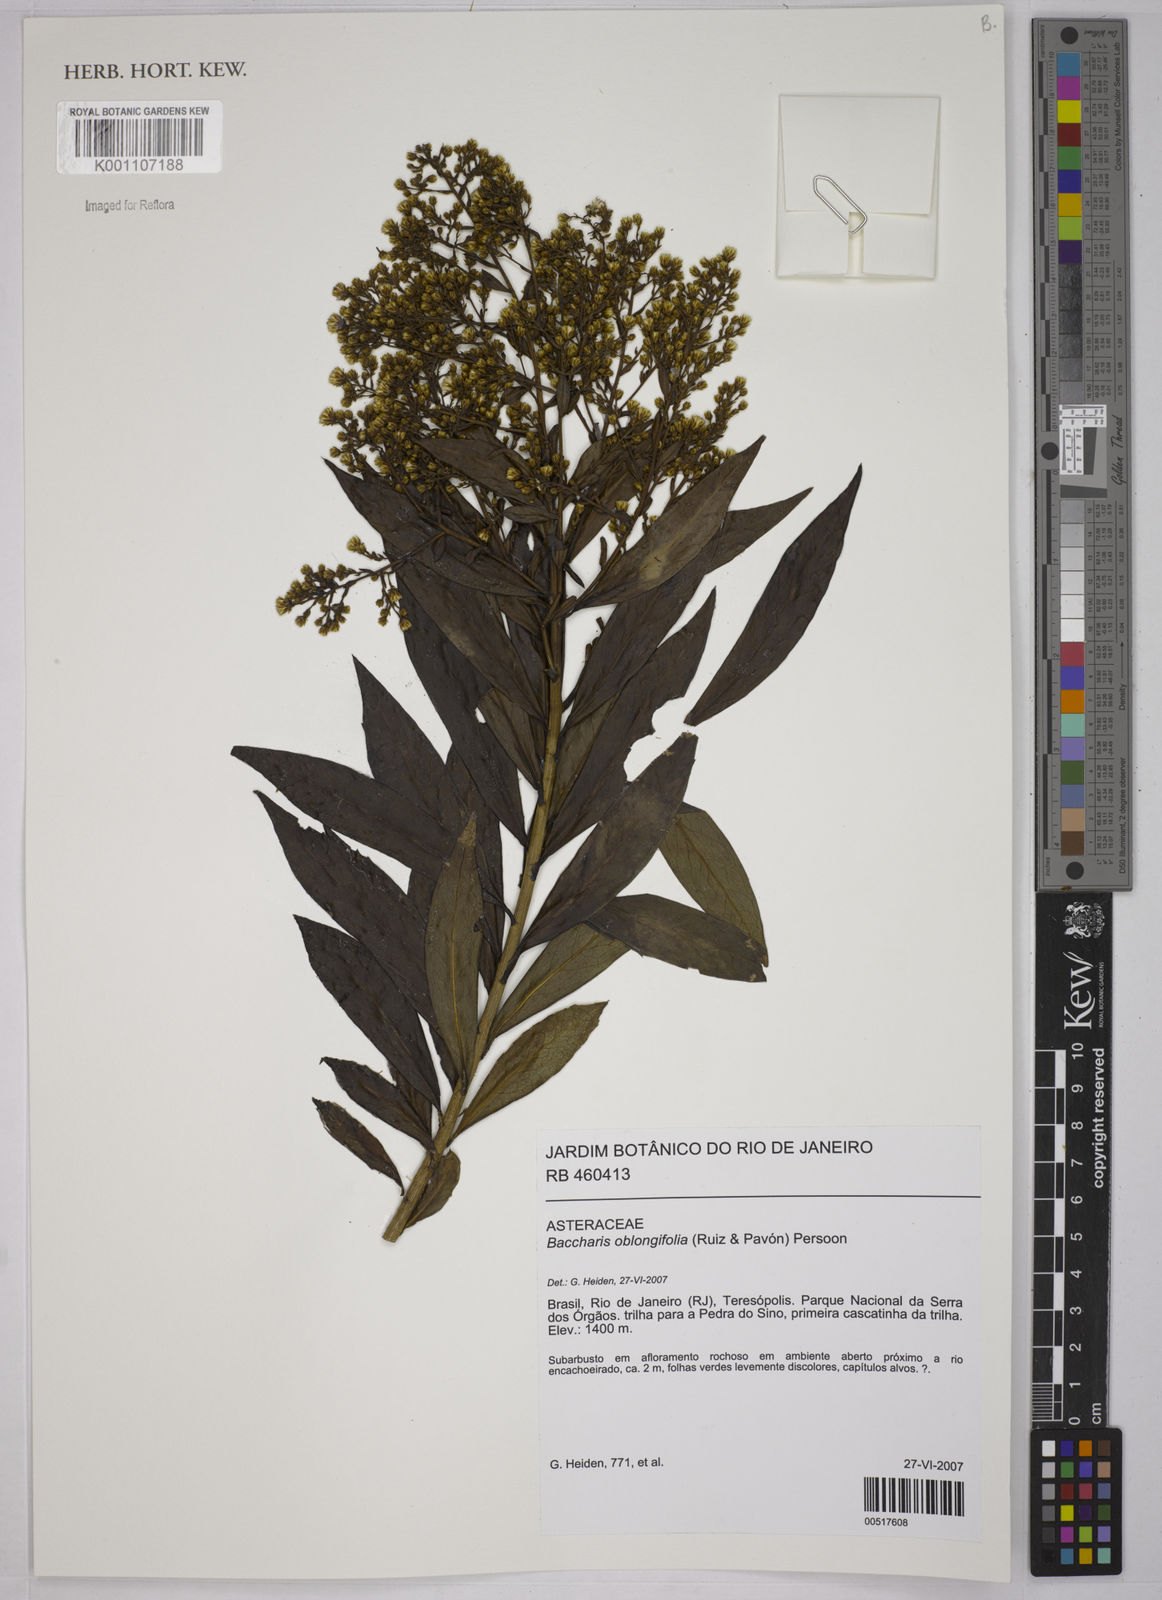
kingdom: Plantae
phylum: Tracheophyta
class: Magnoliopsida
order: Asterales
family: Asteraceae
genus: Baccharis
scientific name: Baccharis oblongifolia
